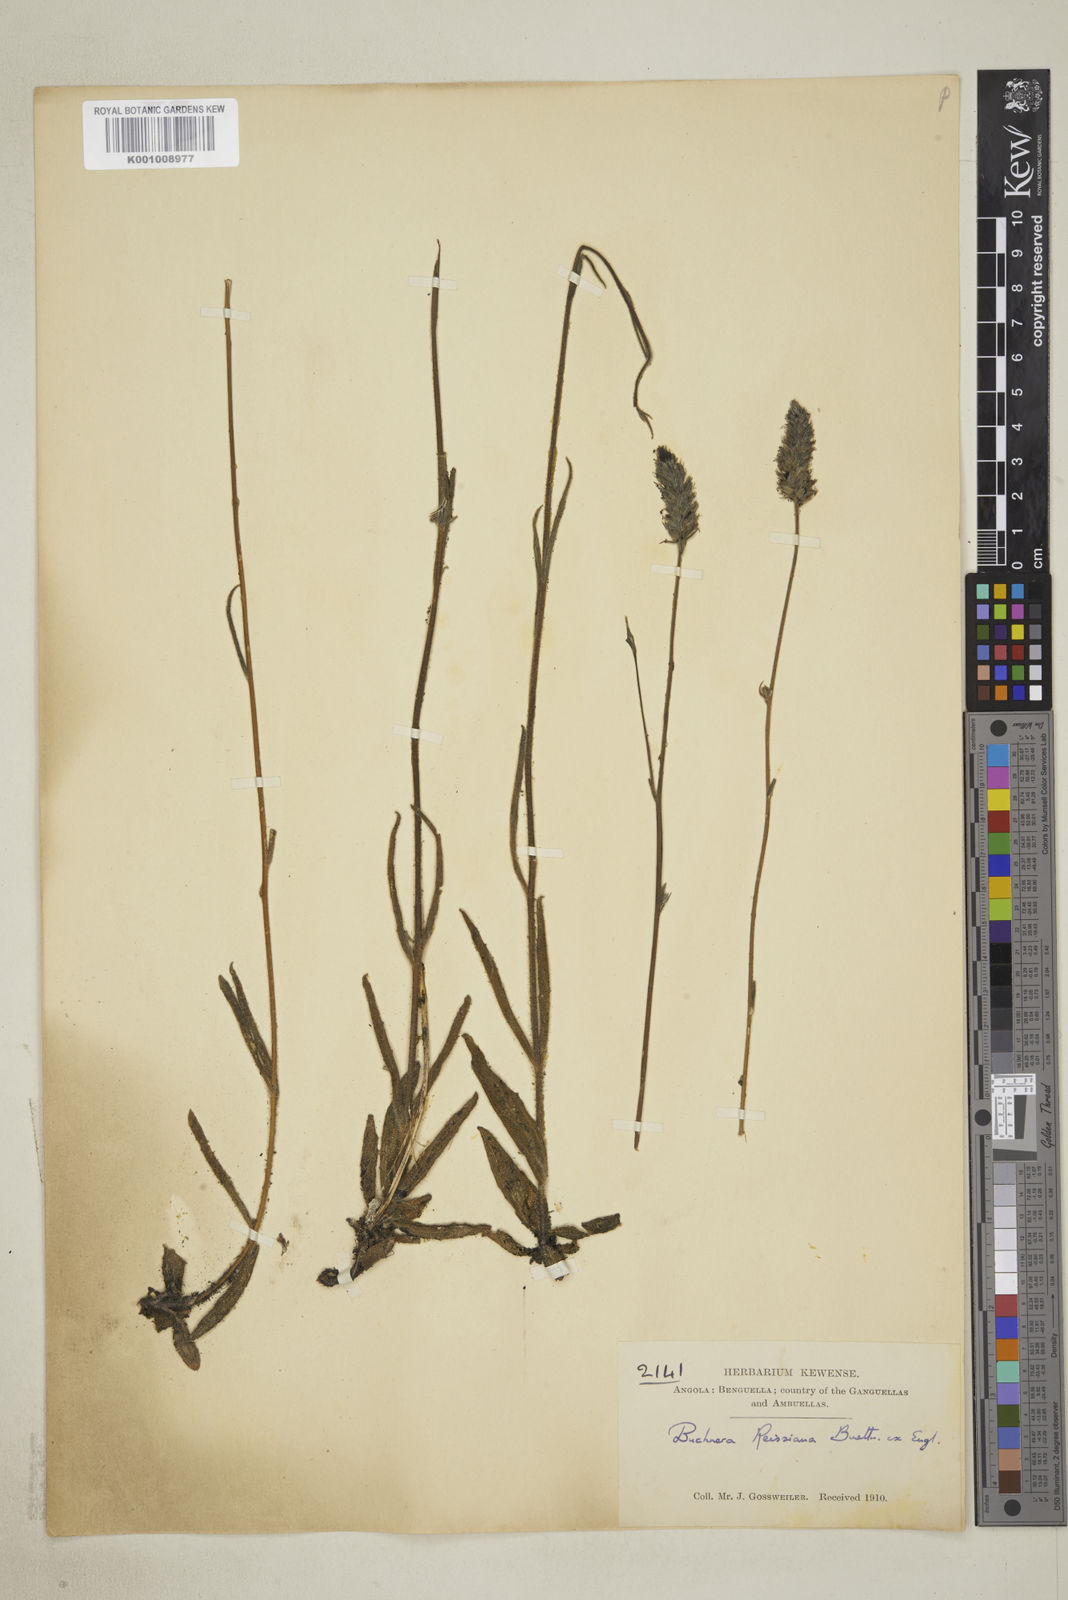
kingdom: Plantae
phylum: Tracheophyta
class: Magnoliopsida
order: Lamiales
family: Orobanchaceae
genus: Buchnera
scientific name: Buchnera
